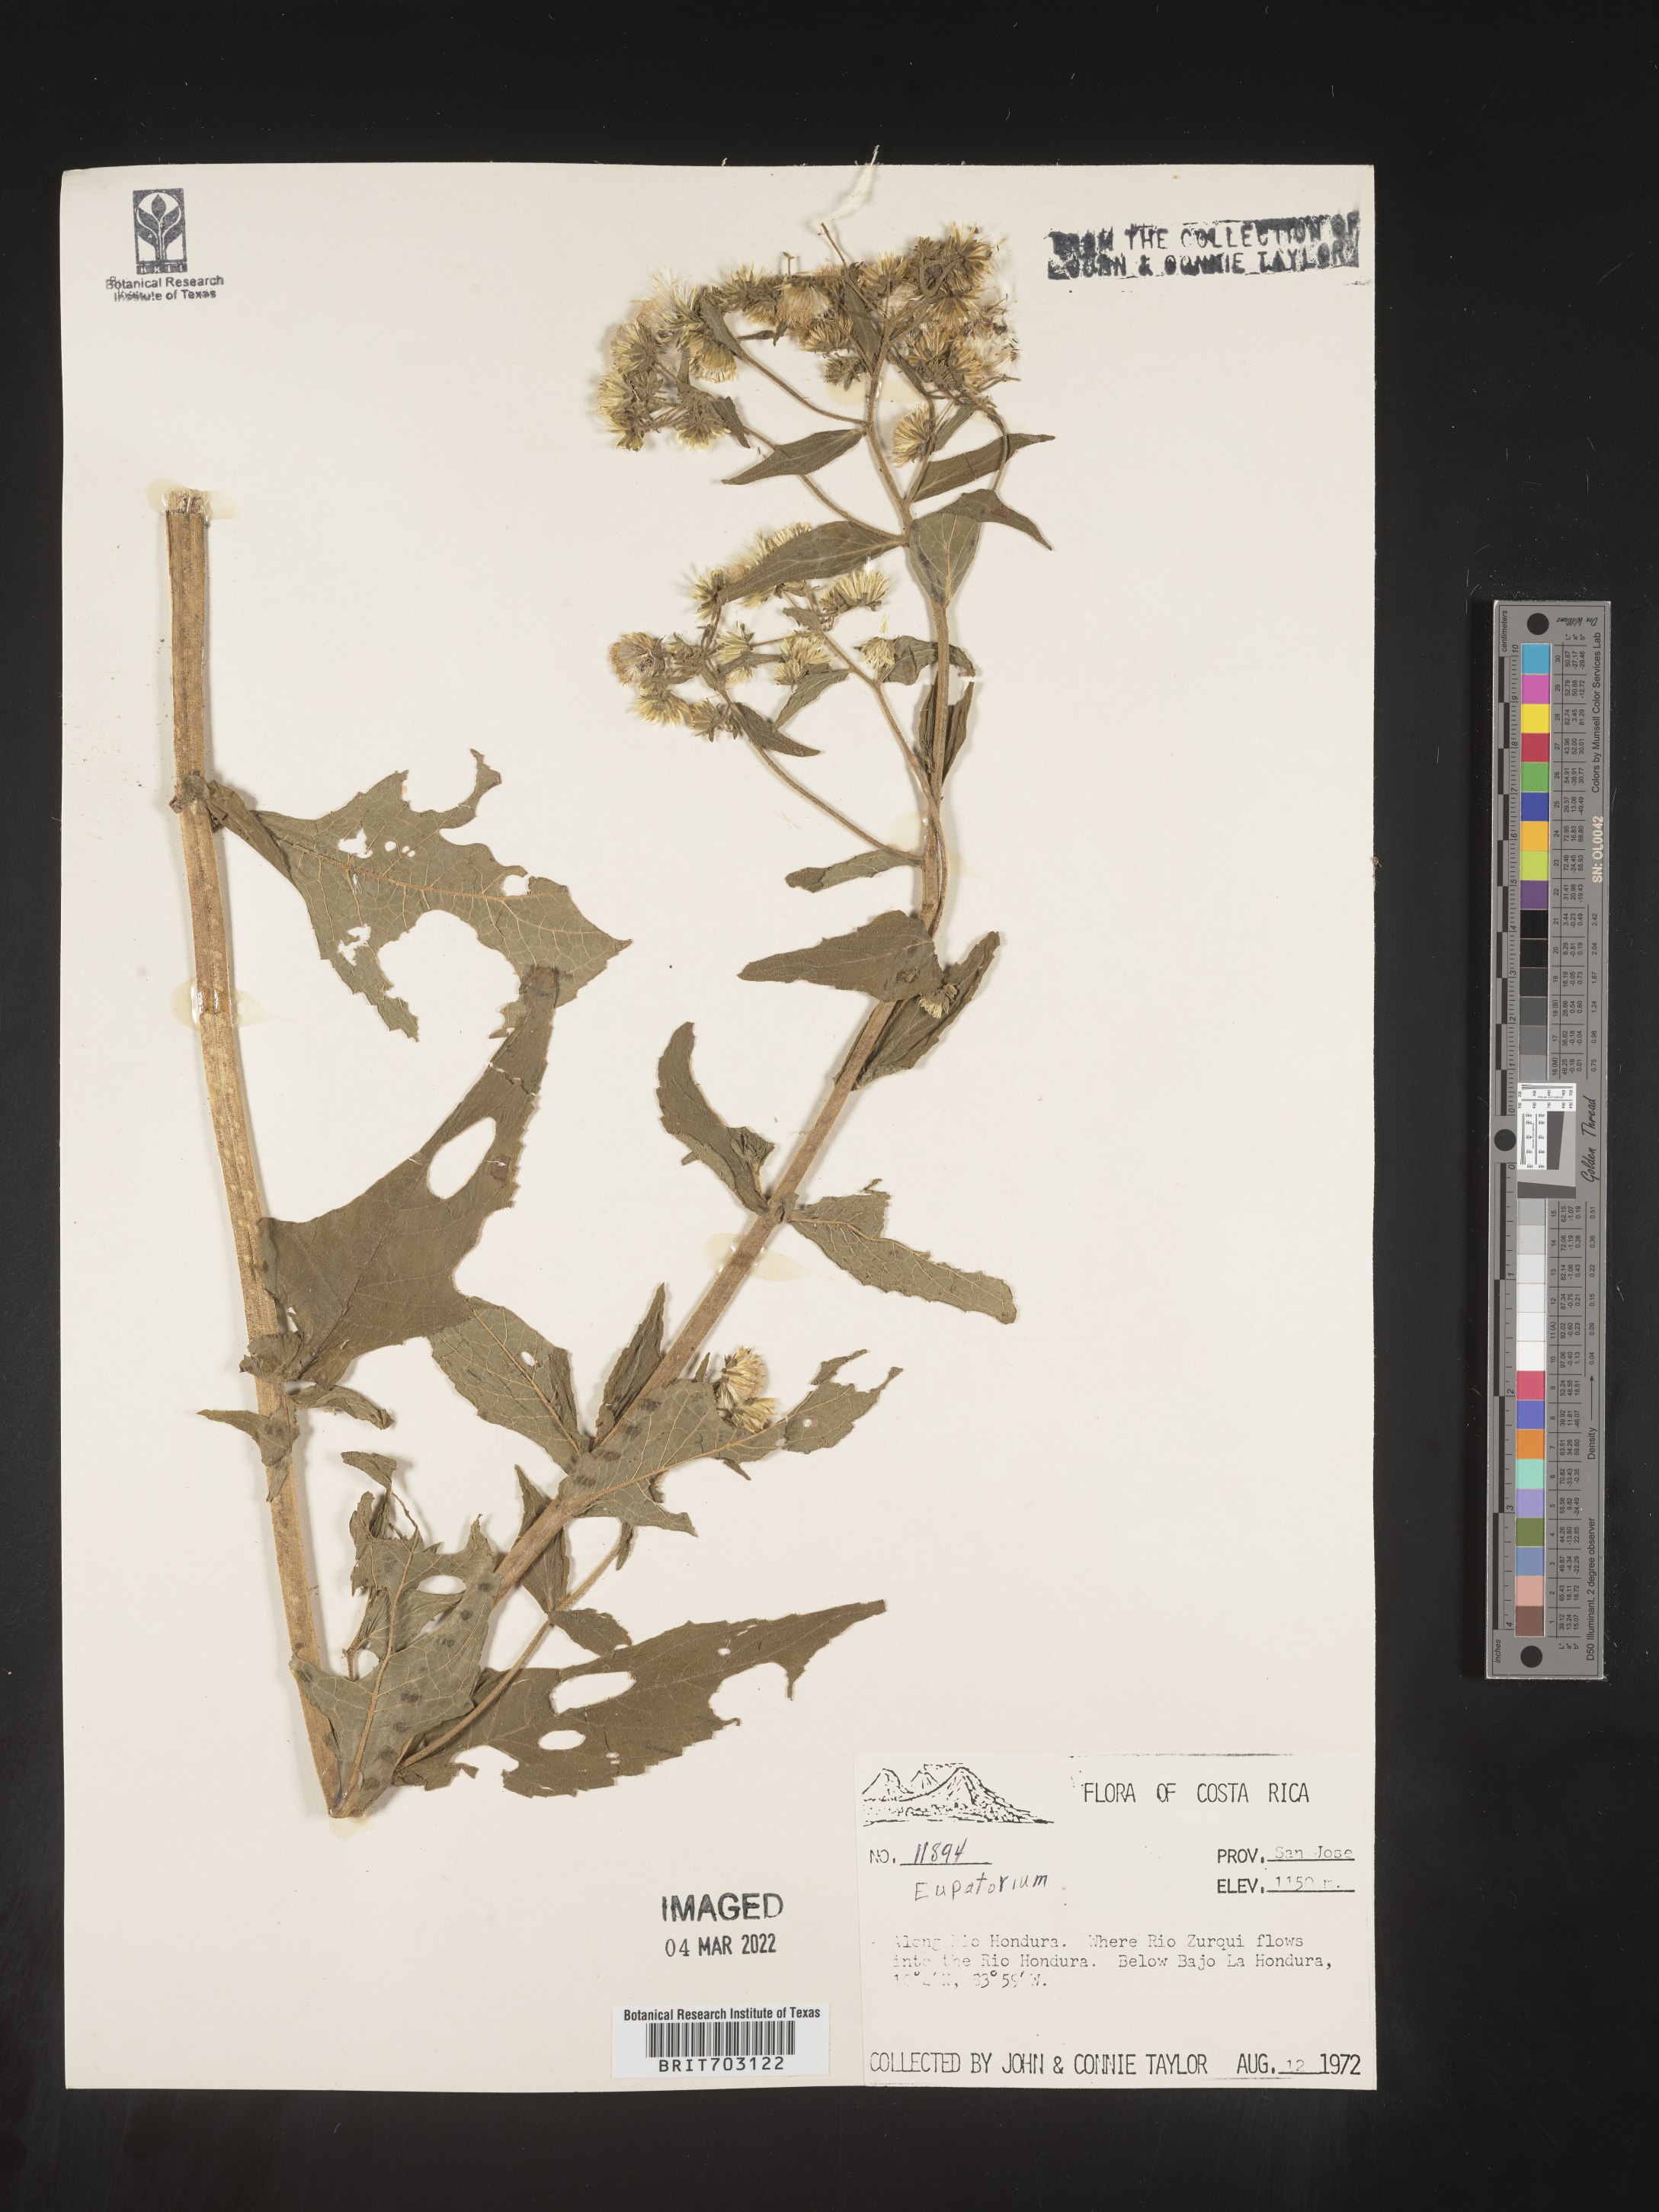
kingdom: Plantae
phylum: Tracheophyta
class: Magnoliopsida
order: Asterales
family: Asteraceae
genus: Eupatorium
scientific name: Eupatorium
